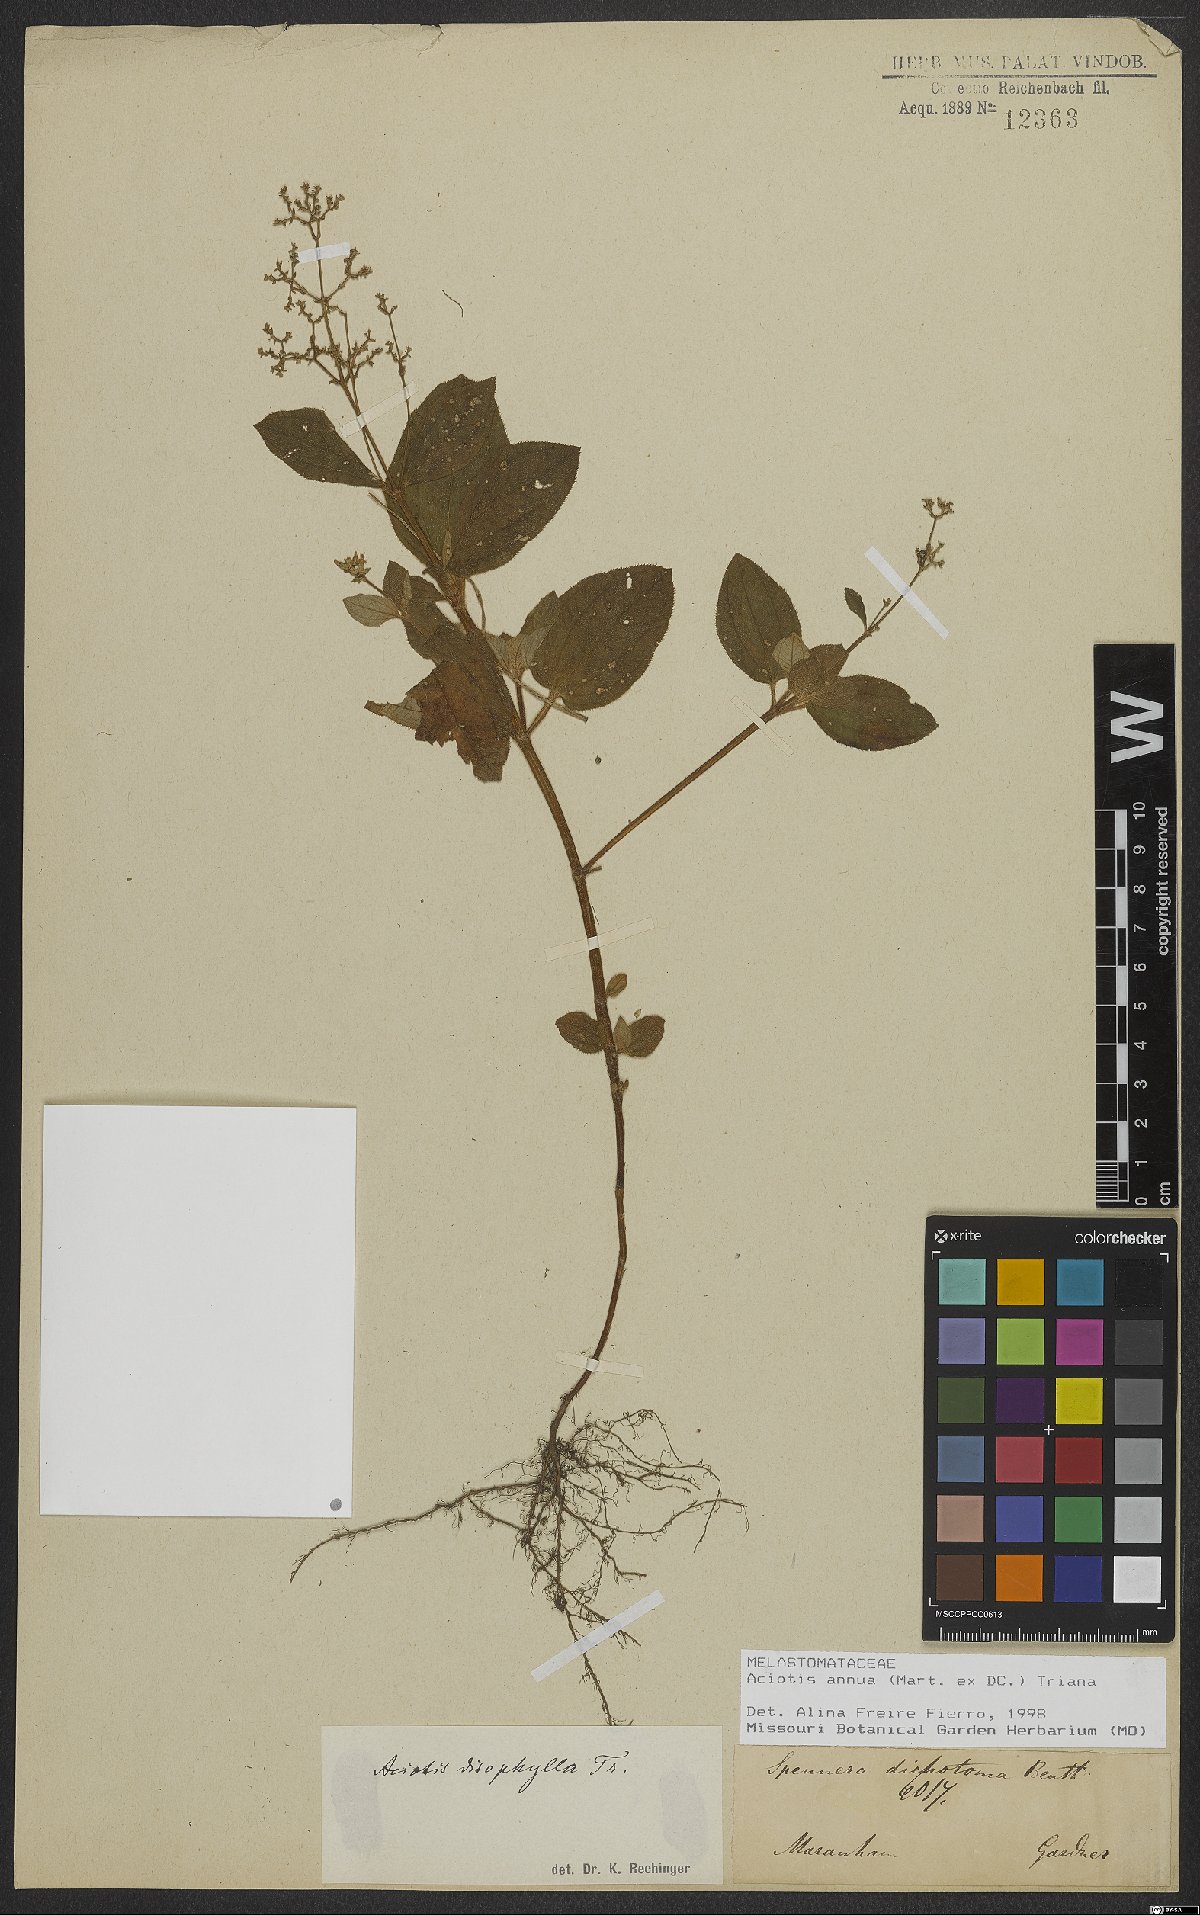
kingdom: Plantae
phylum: Tracheophyta
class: Magnoliopsida
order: Myrtales
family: Melastomataceae
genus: Aciotis
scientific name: Aciotis annua
